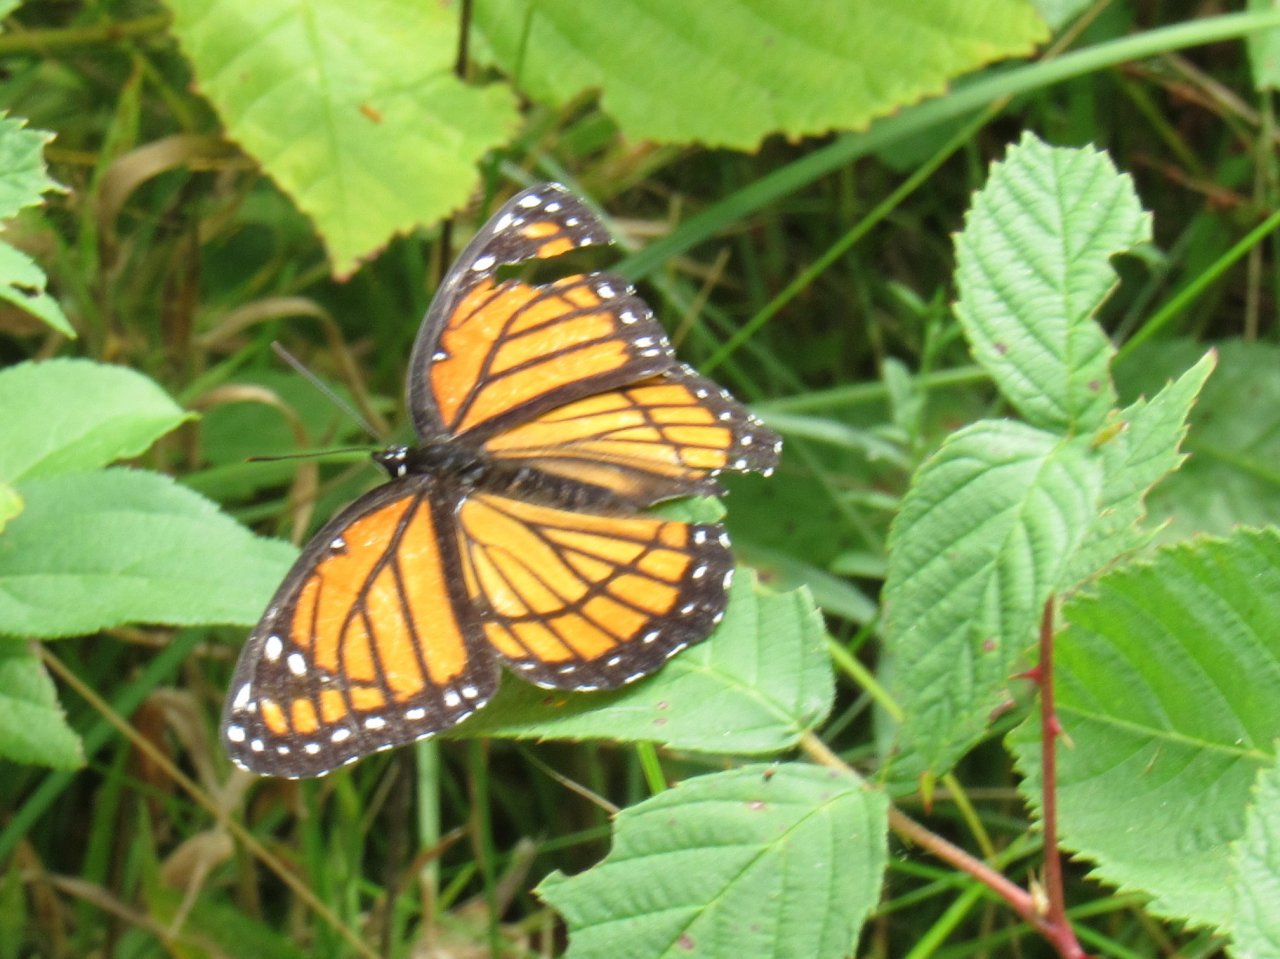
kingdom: Animalia
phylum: Arthropoda
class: Insecta
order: Lepidoptera
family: Nymphalidae
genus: Limenitis
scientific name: Limenitis archippus
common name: Viceroy
